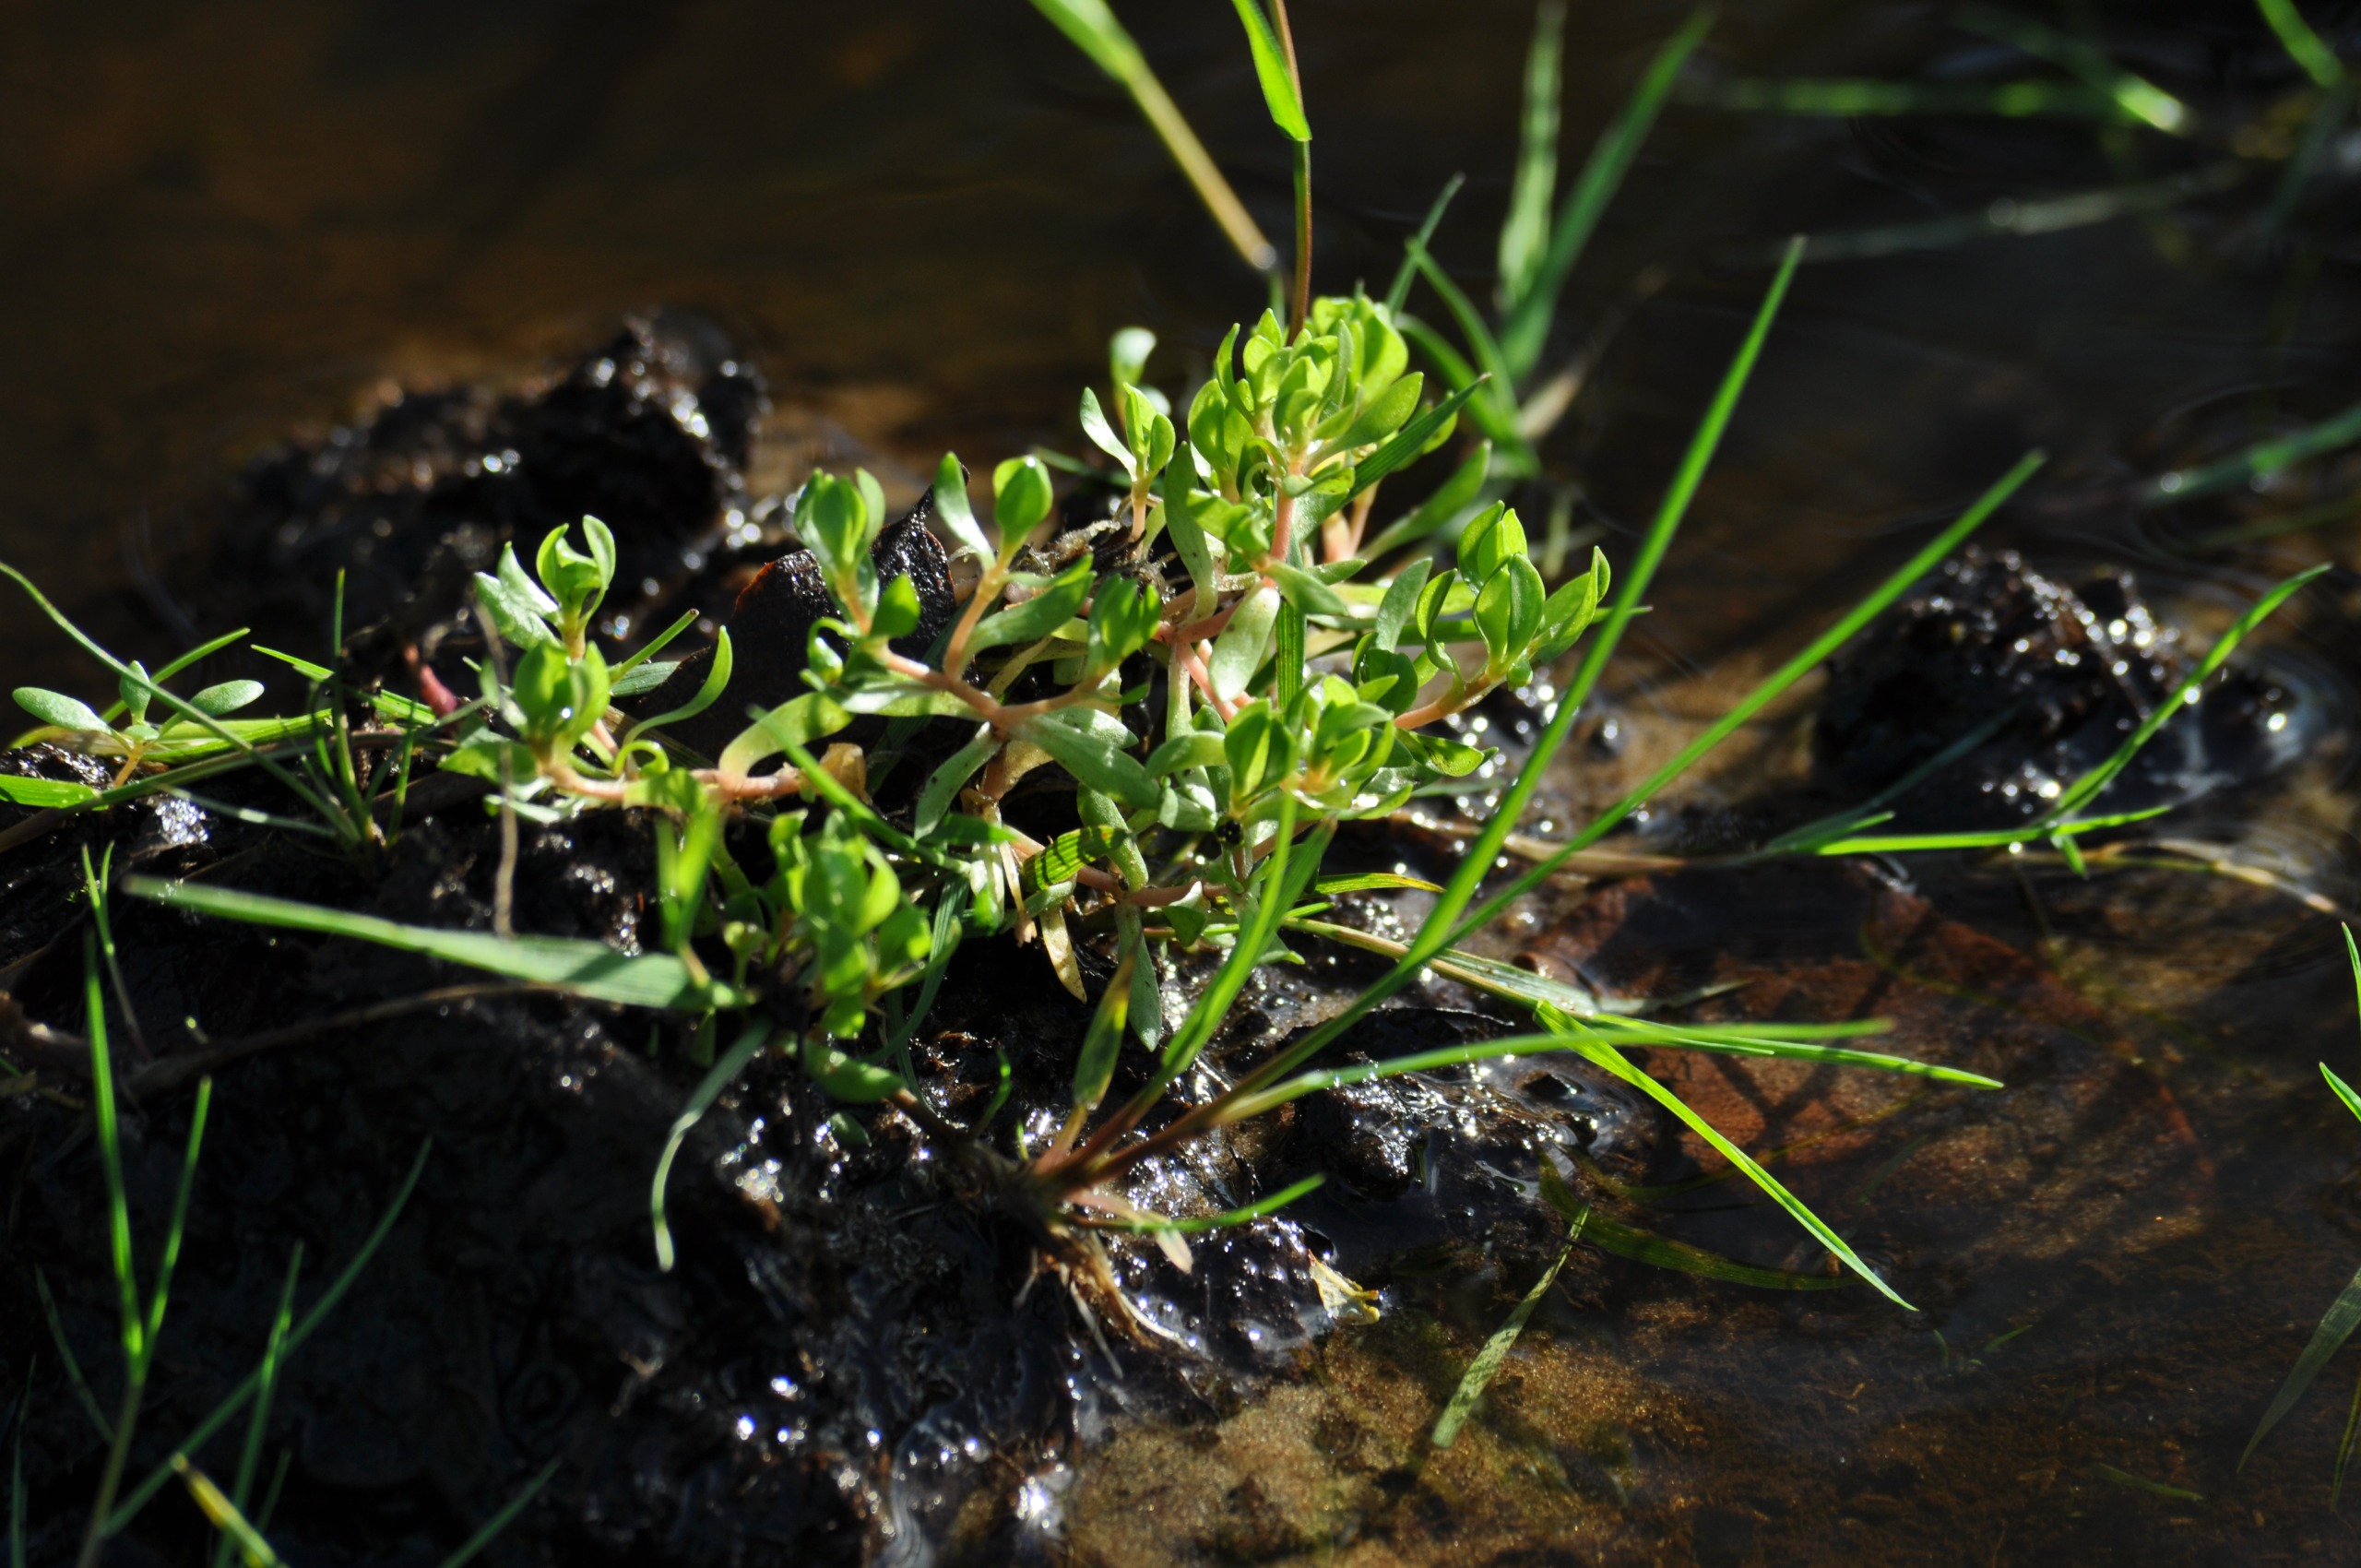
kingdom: Plantae
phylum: Tracheophyta
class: Magnoliopsida
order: Caryophyllales
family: Montiaceae
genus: Montia
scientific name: Montia fontana
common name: Stor vandarve
